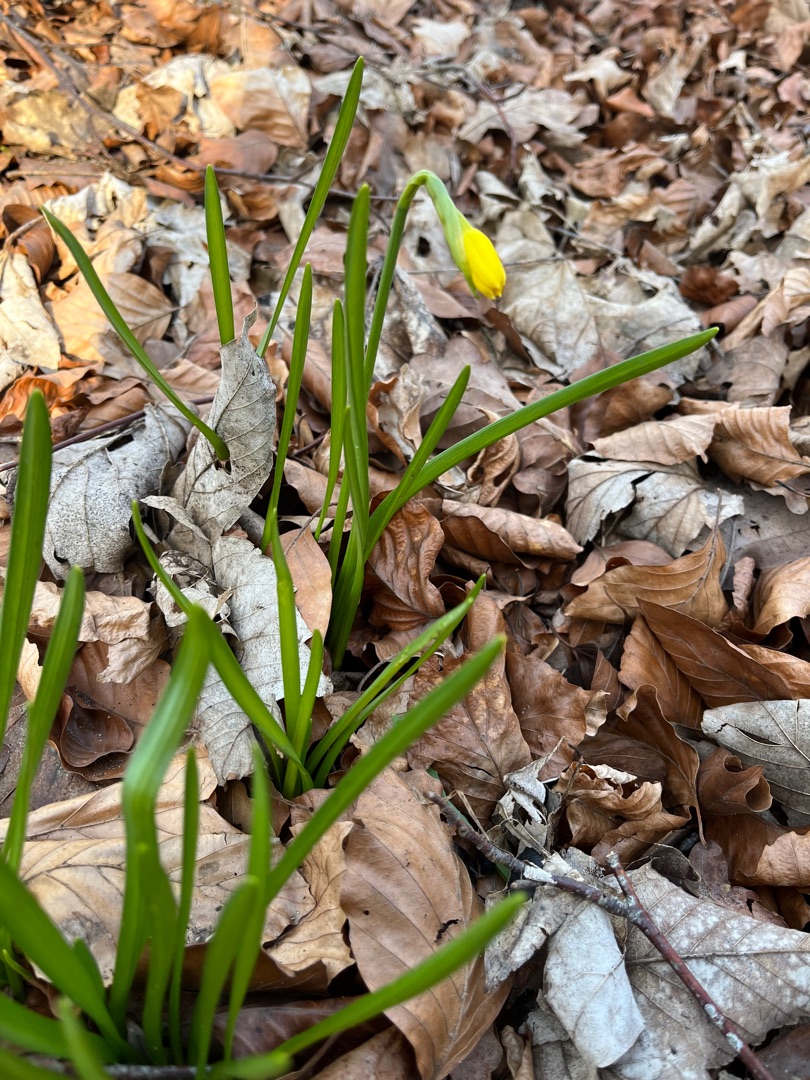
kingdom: Plantae
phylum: Tracheophyta
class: Liliopsida
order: Asparagales
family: Amaryllidaceae
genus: Narcissus
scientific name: Narcissus cyclazetta
